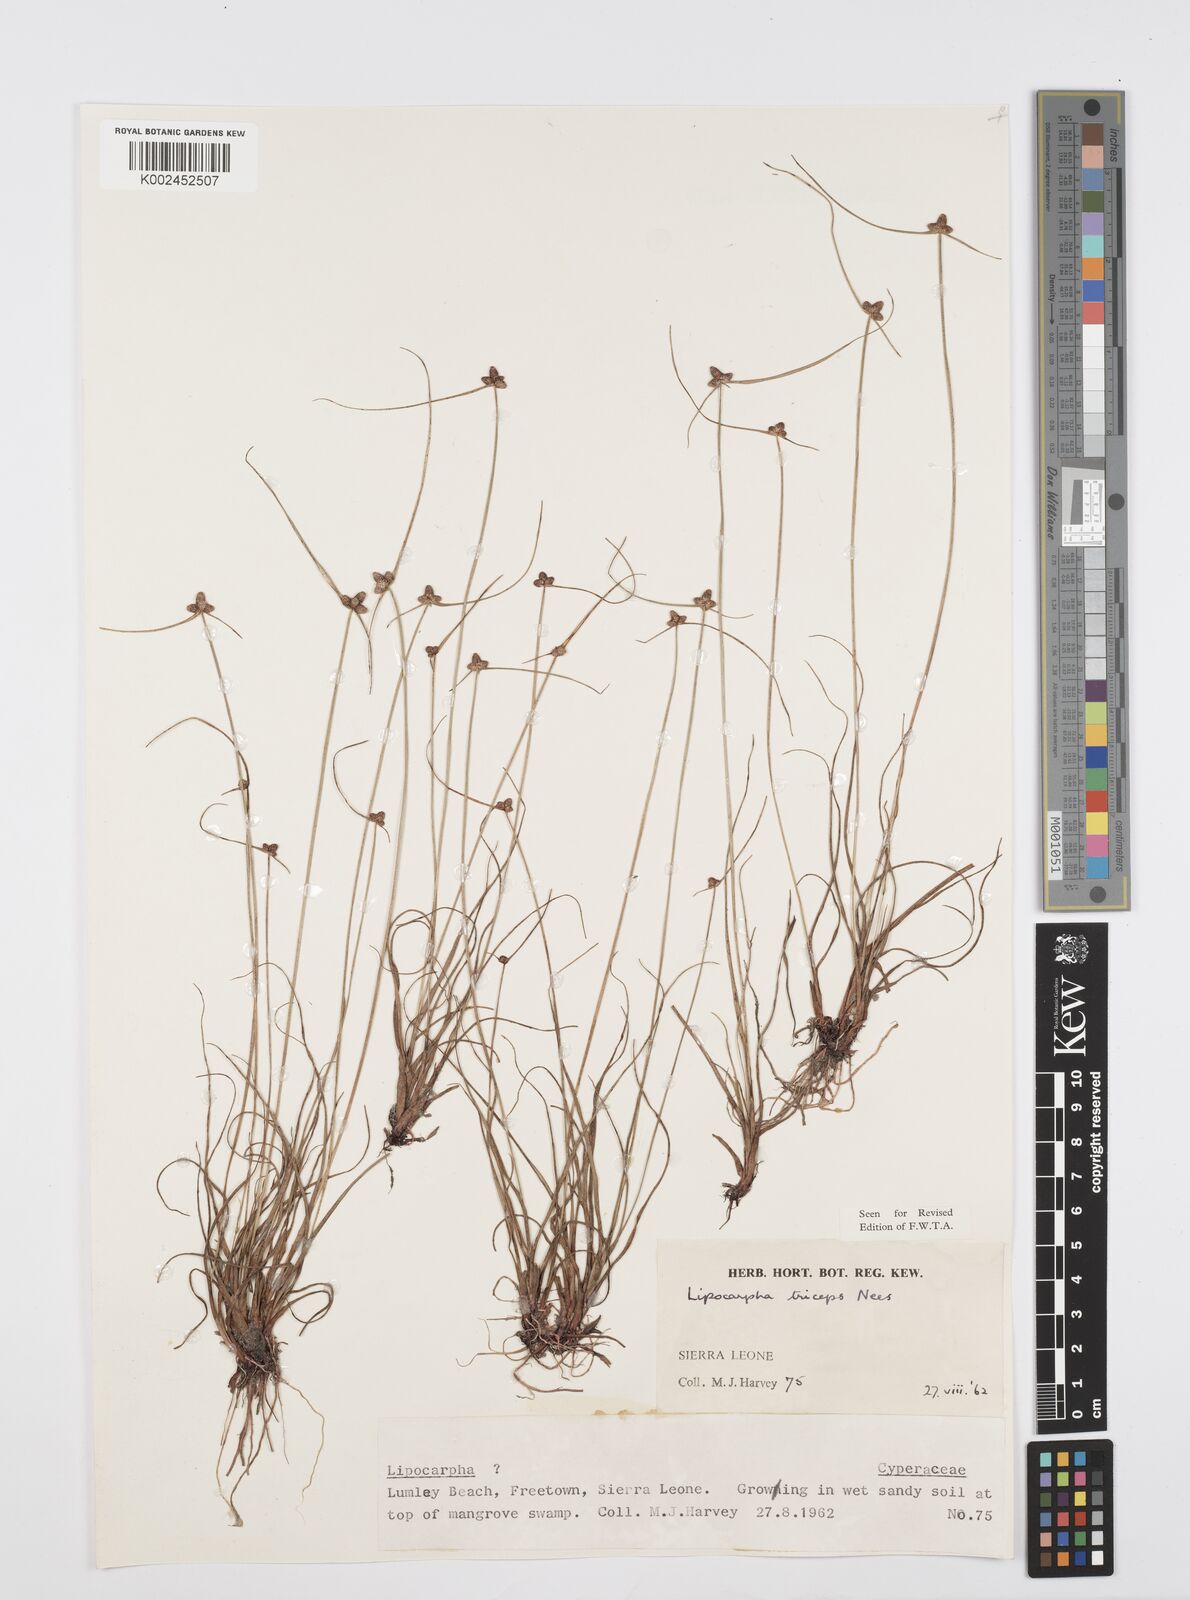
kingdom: Plantae
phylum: Tracheophyta
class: Liliopsida
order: Poales
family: Cyperaceae
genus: Cyperus
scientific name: Cyperus filiformis
